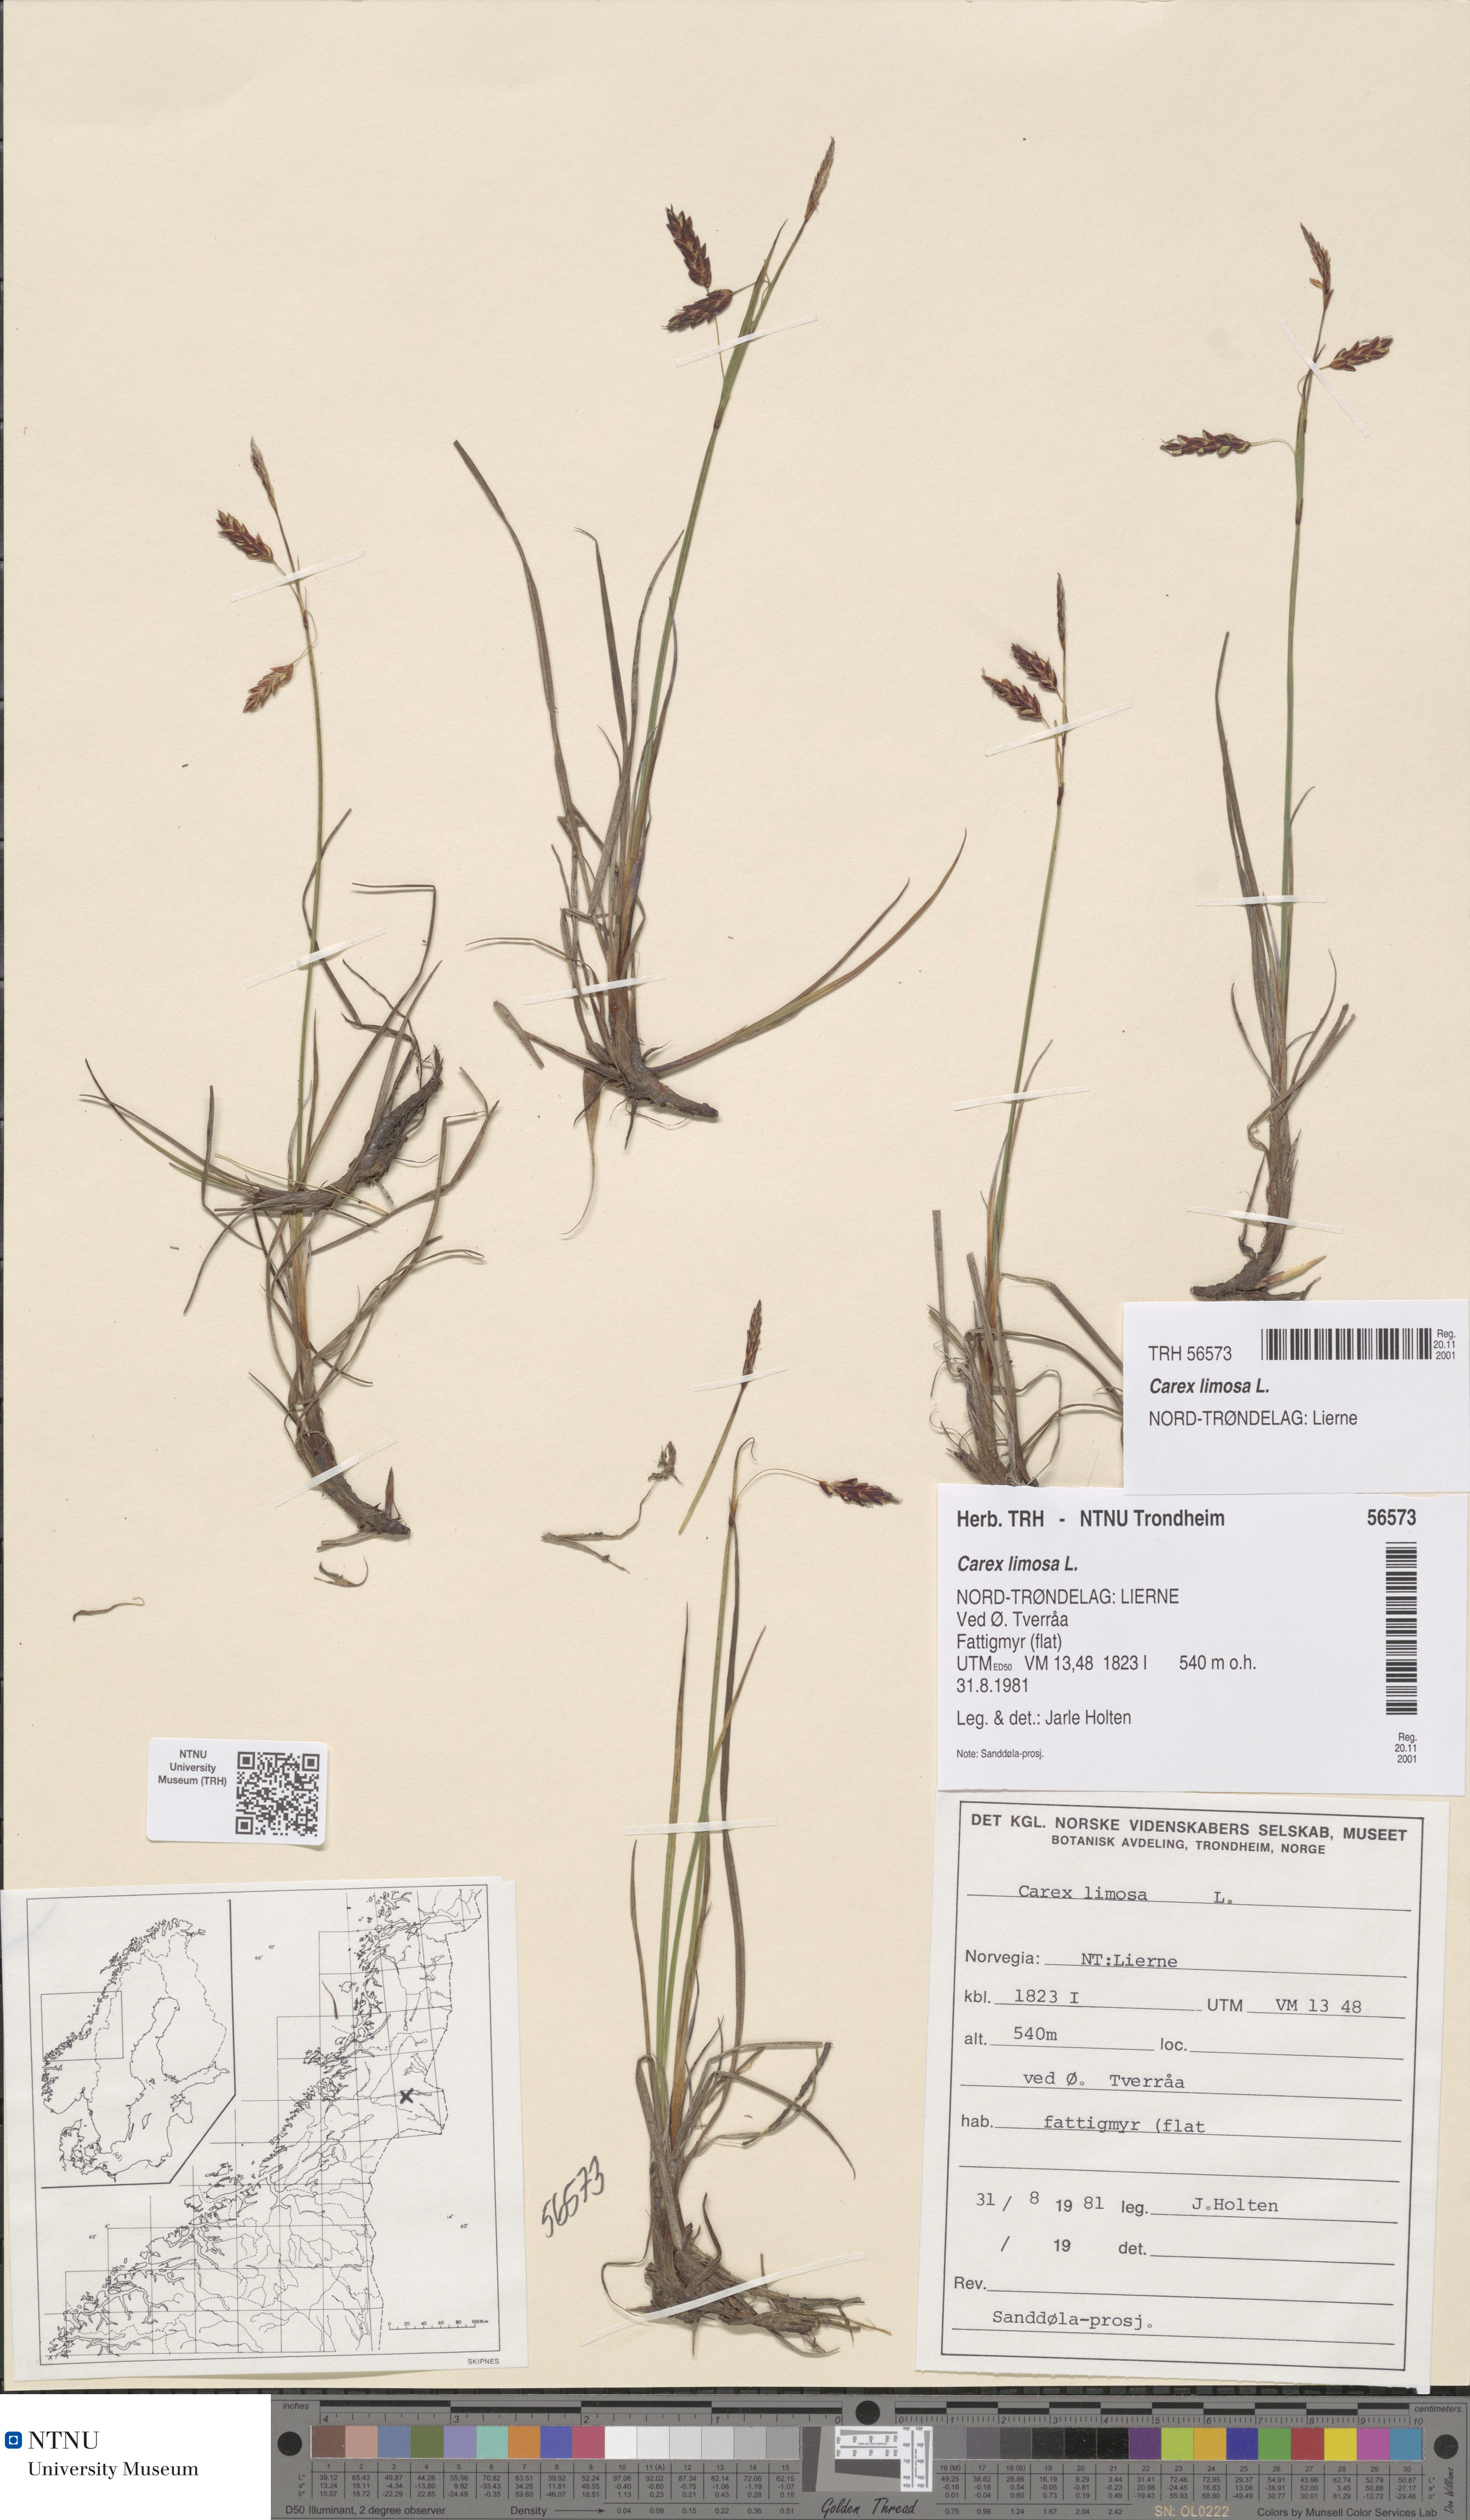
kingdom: Plantae
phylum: Tracheophyta
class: Liliopsida
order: Poales
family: Cyperaceae
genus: Carex
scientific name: Carex limosa
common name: Bog sedge
